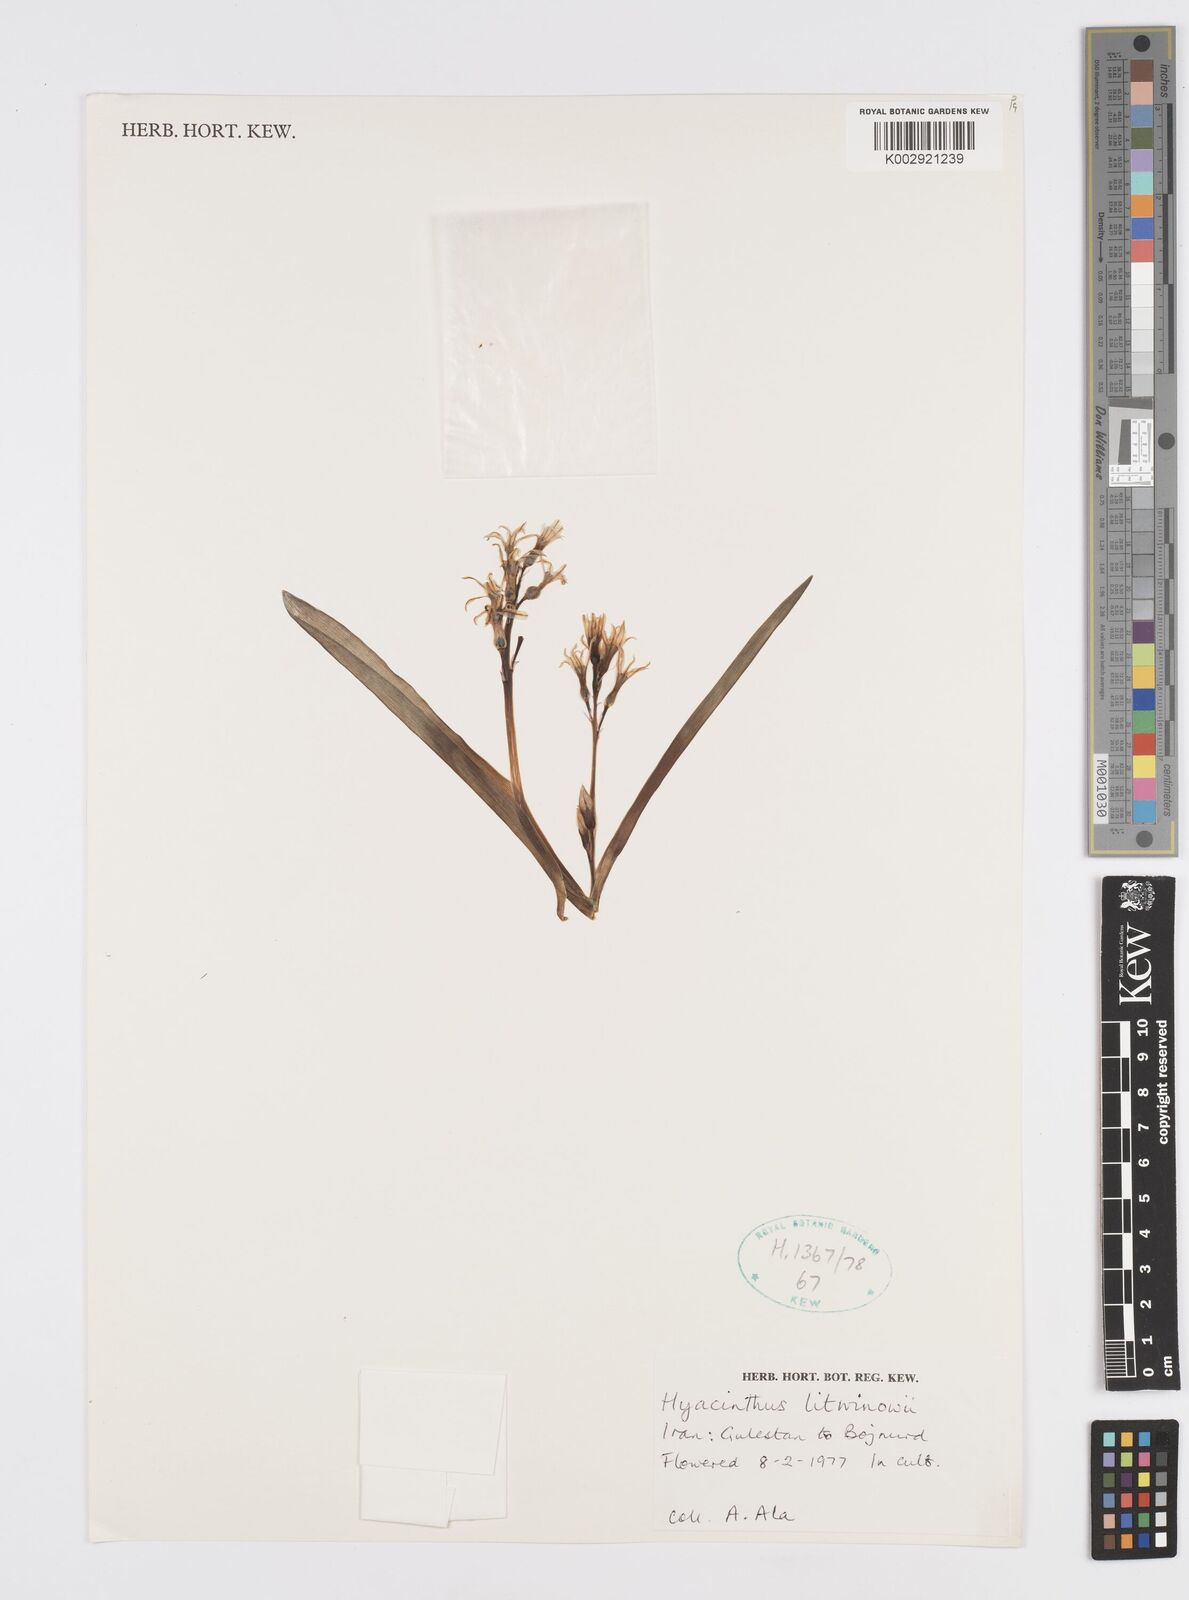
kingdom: Plantae
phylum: Tracheophyta
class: Liliopsida
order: Asparagales
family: Asparagaceae
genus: Hyacinthus
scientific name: Hyacinthus litwinowii
